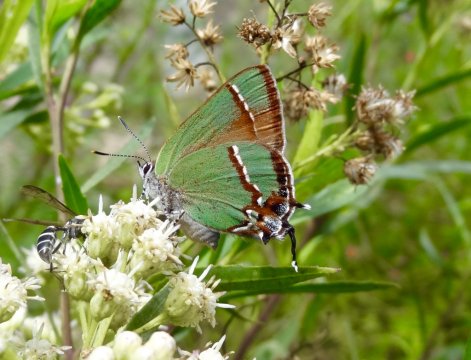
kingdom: Animalia
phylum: Arthropoda
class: Insecta
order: Lepidoptera
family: Lycaenidae
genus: Callophrys
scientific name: Callophrys
